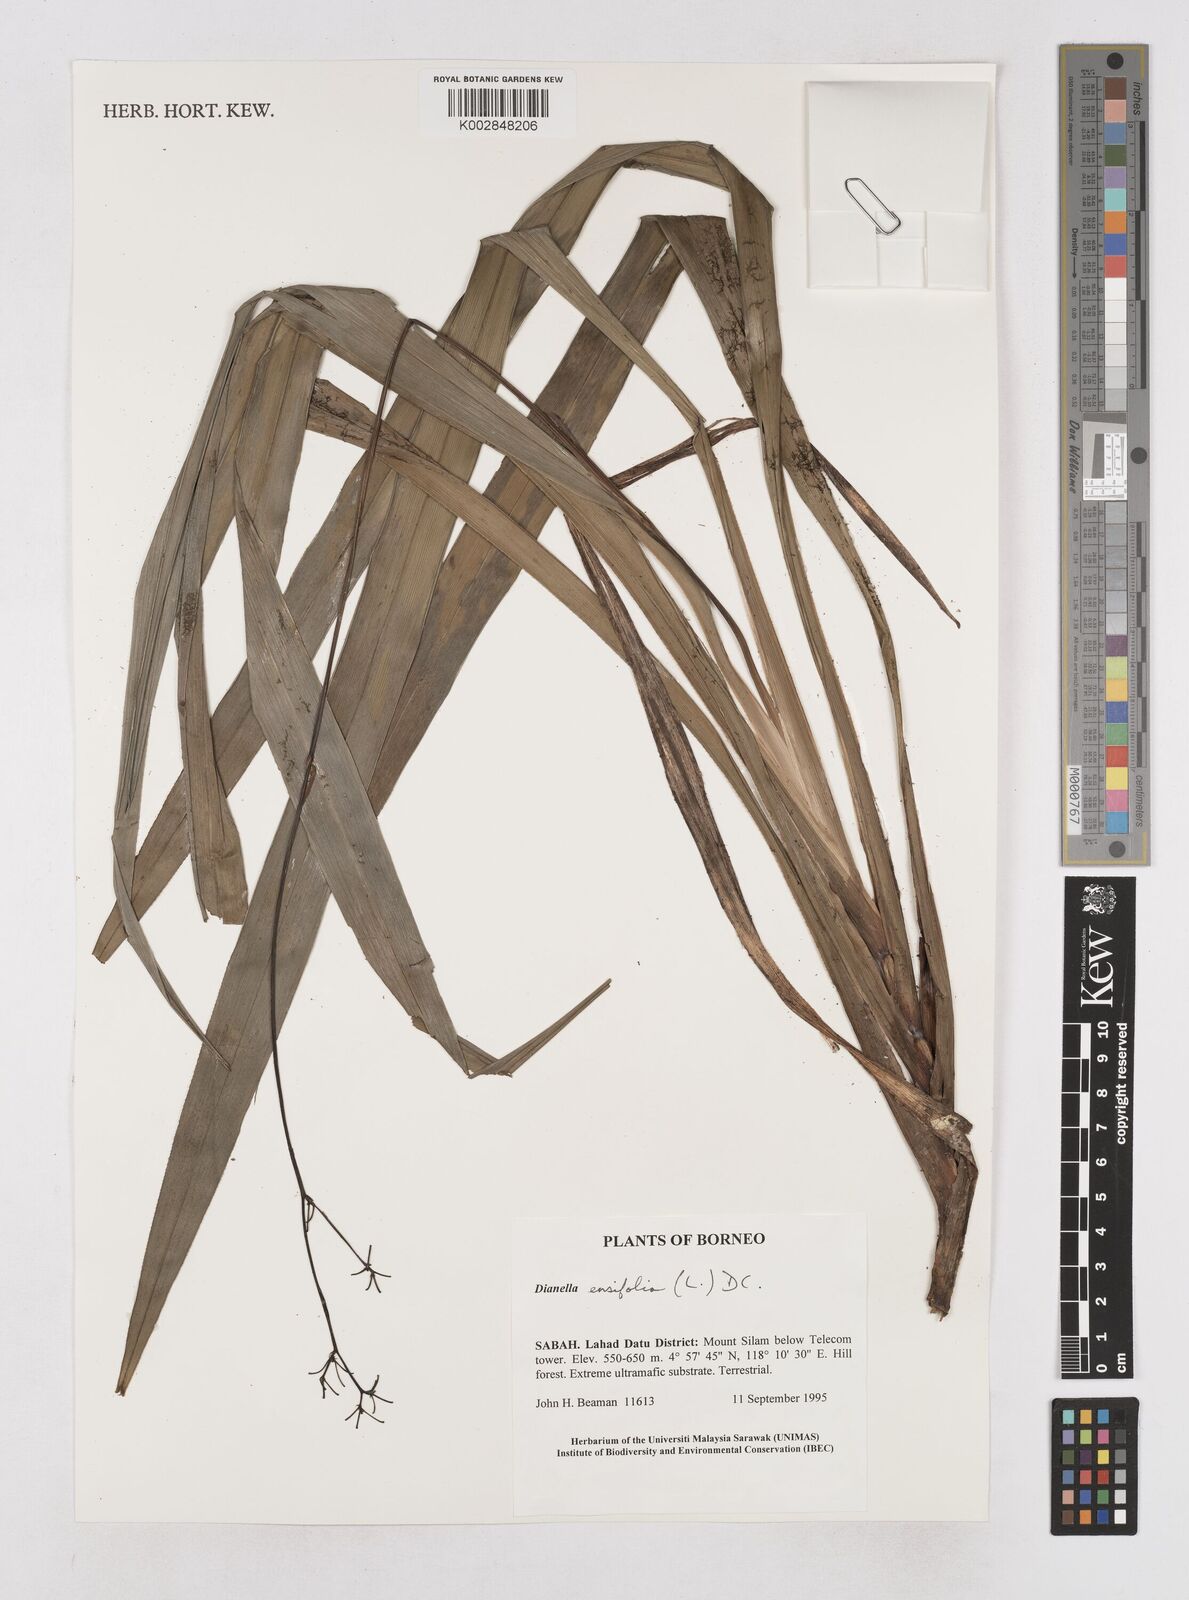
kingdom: Plantae
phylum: Tracheophyta
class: Liliopsida
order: Asparagales
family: Asphodelaceae
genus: Dianella
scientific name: Dianella ensifolia
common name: New zealand lilyplant
